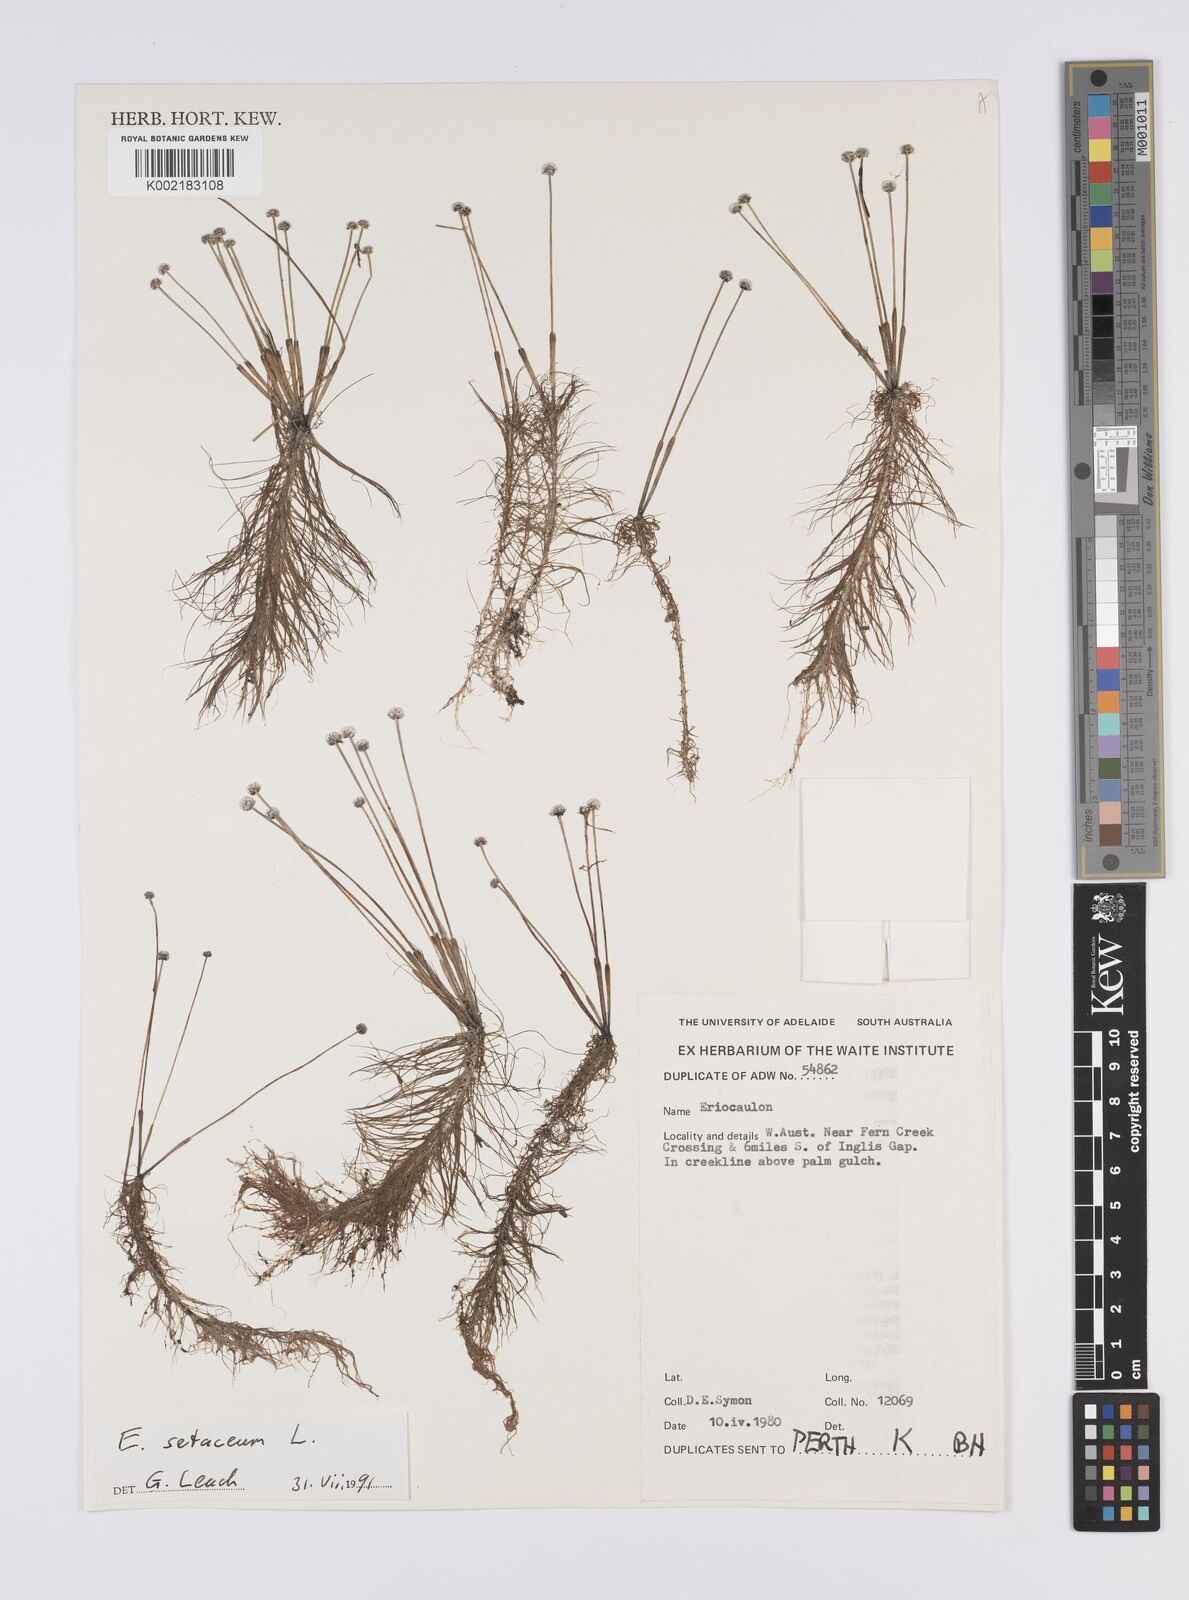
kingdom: Plantae
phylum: Tracheophyta
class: Liliopsida
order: Poales
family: Eriocaulaceae
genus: Eriocaulon
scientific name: Eriocaulon setaceum
